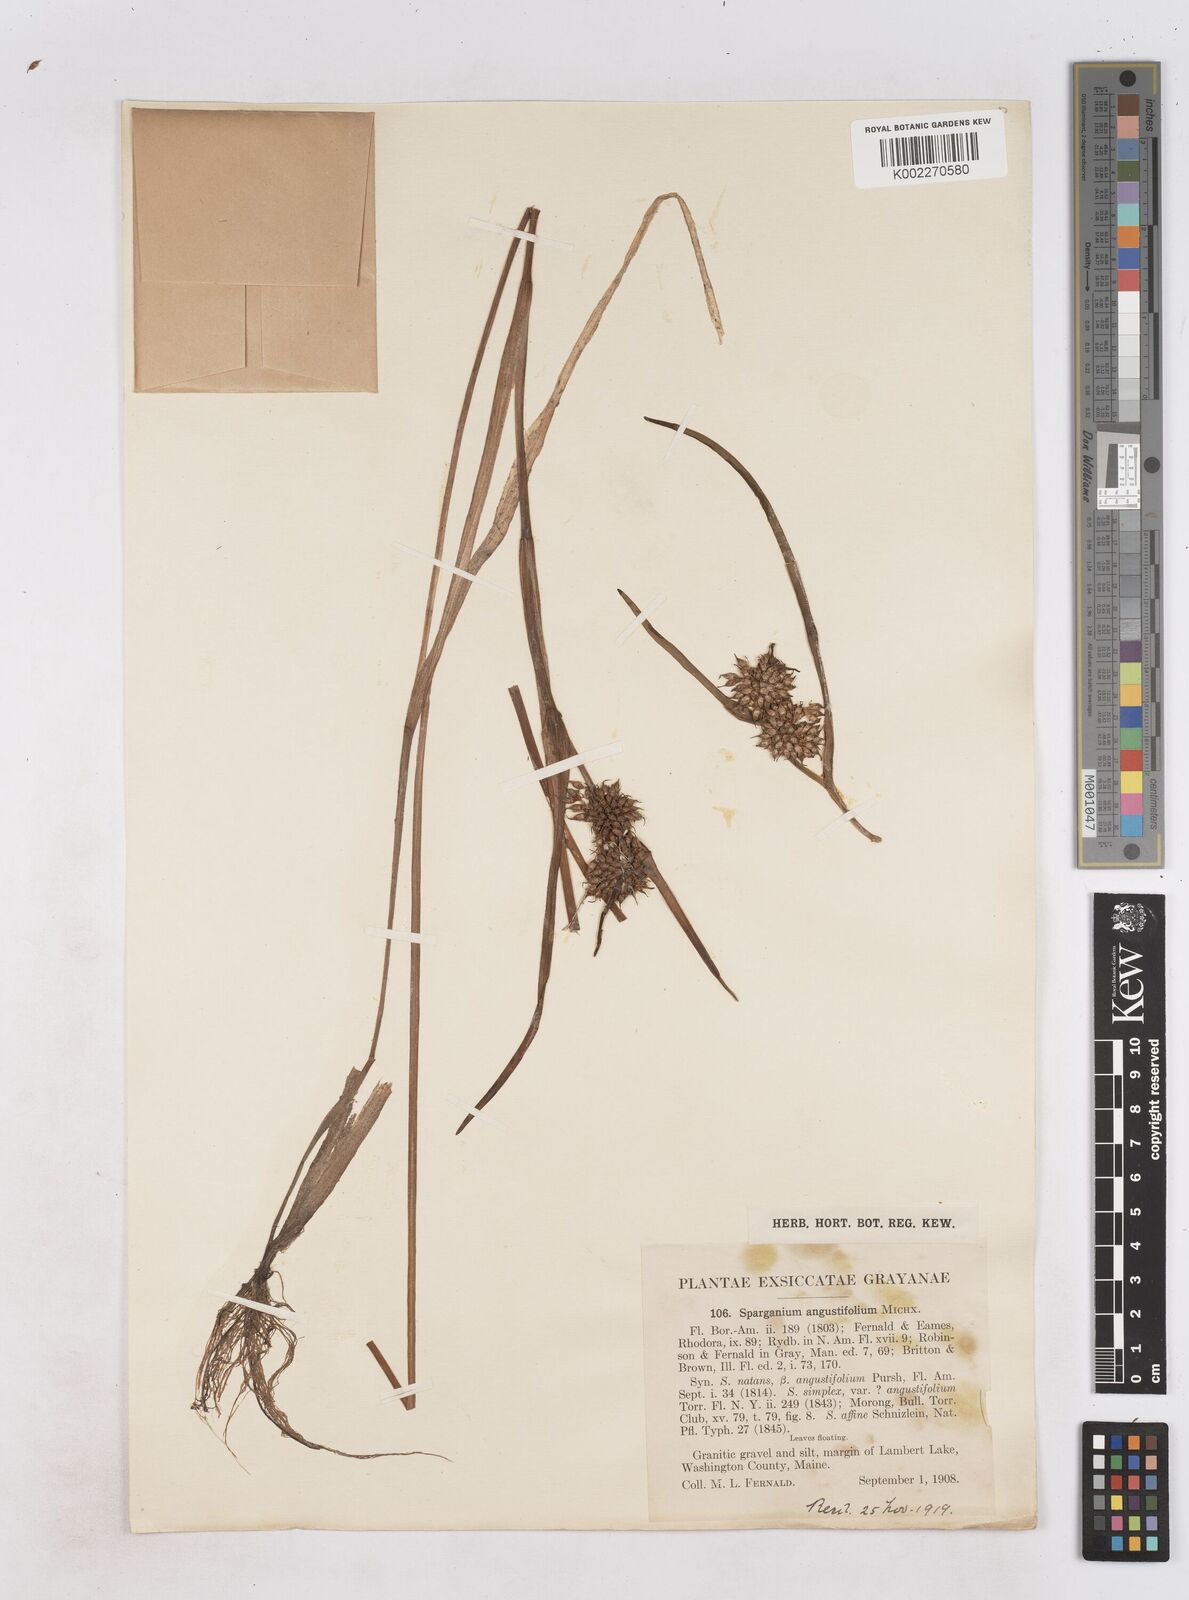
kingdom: Plantae
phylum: Tracheophyta
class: Liliopsida
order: Poales
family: Typhaceae
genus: Sparganium
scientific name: Sparganium angustifolium
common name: Floating bur-reed
